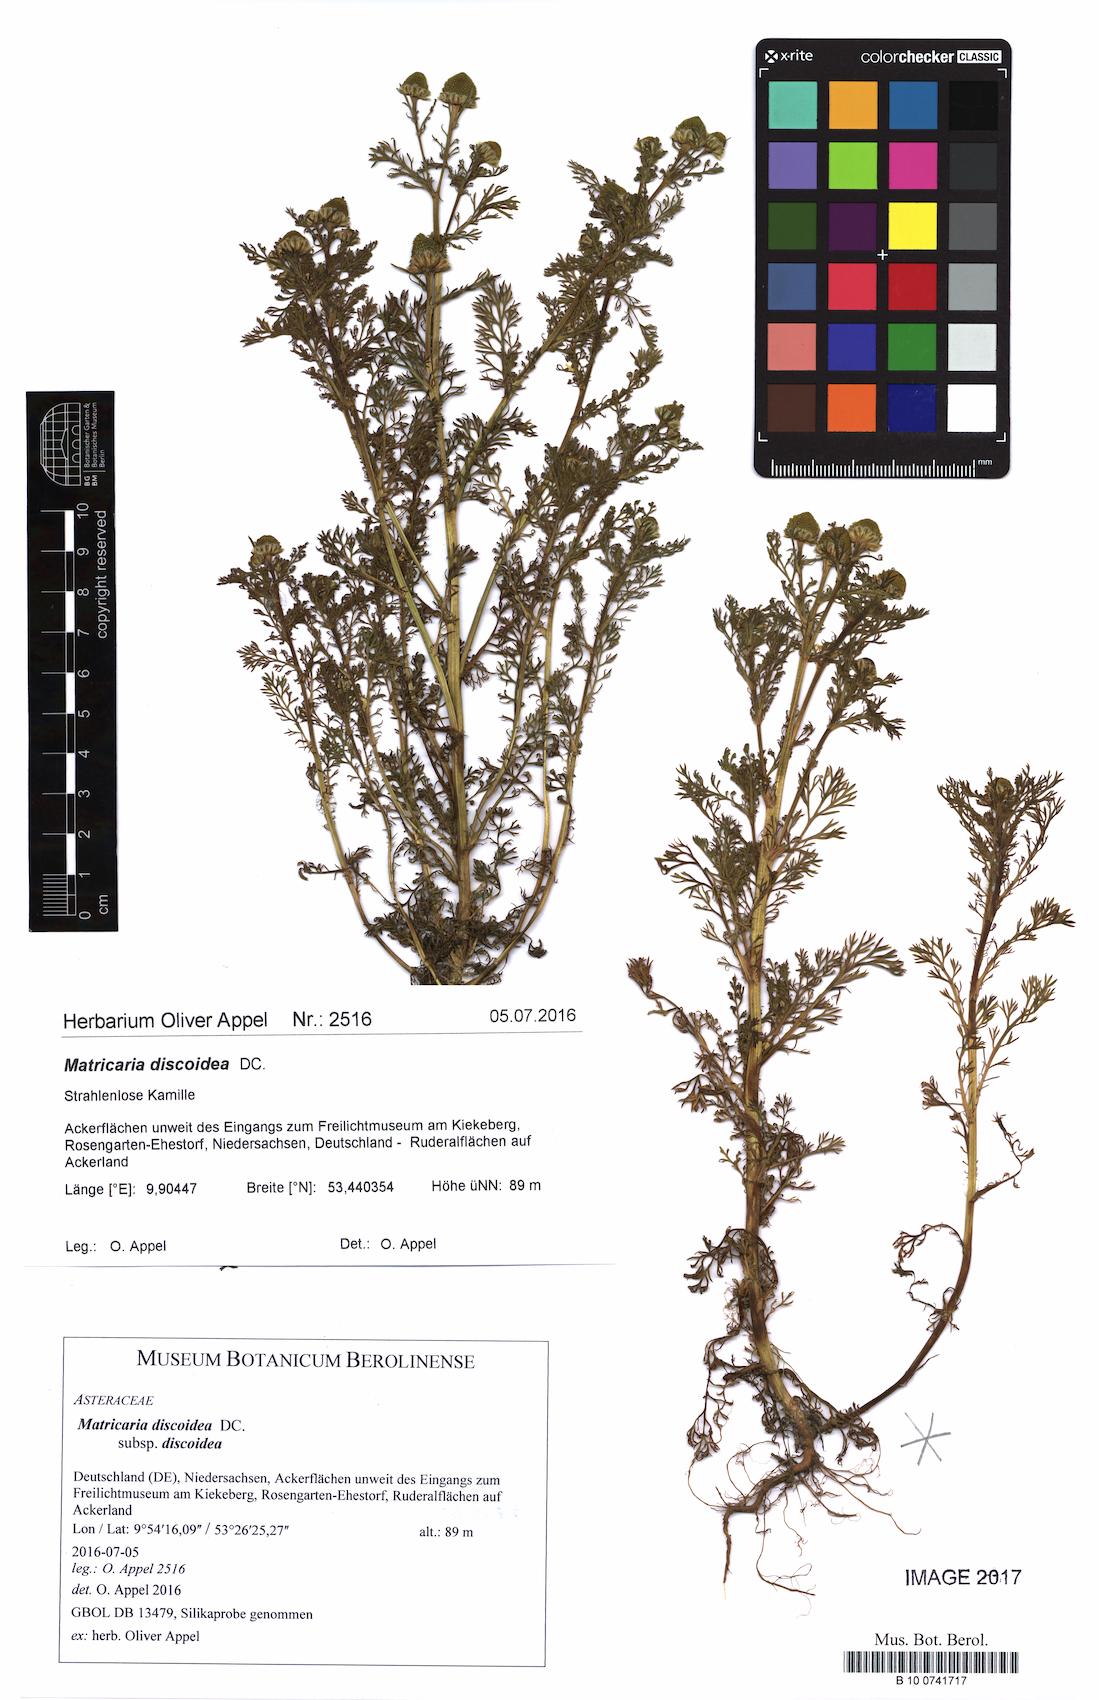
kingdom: Plantae
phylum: Tracheophyta
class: Magnoliopsida
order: Asterales
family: Asteraceae
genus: Matricaria
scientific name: Matricaria discoidea
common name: Disc mayweed
